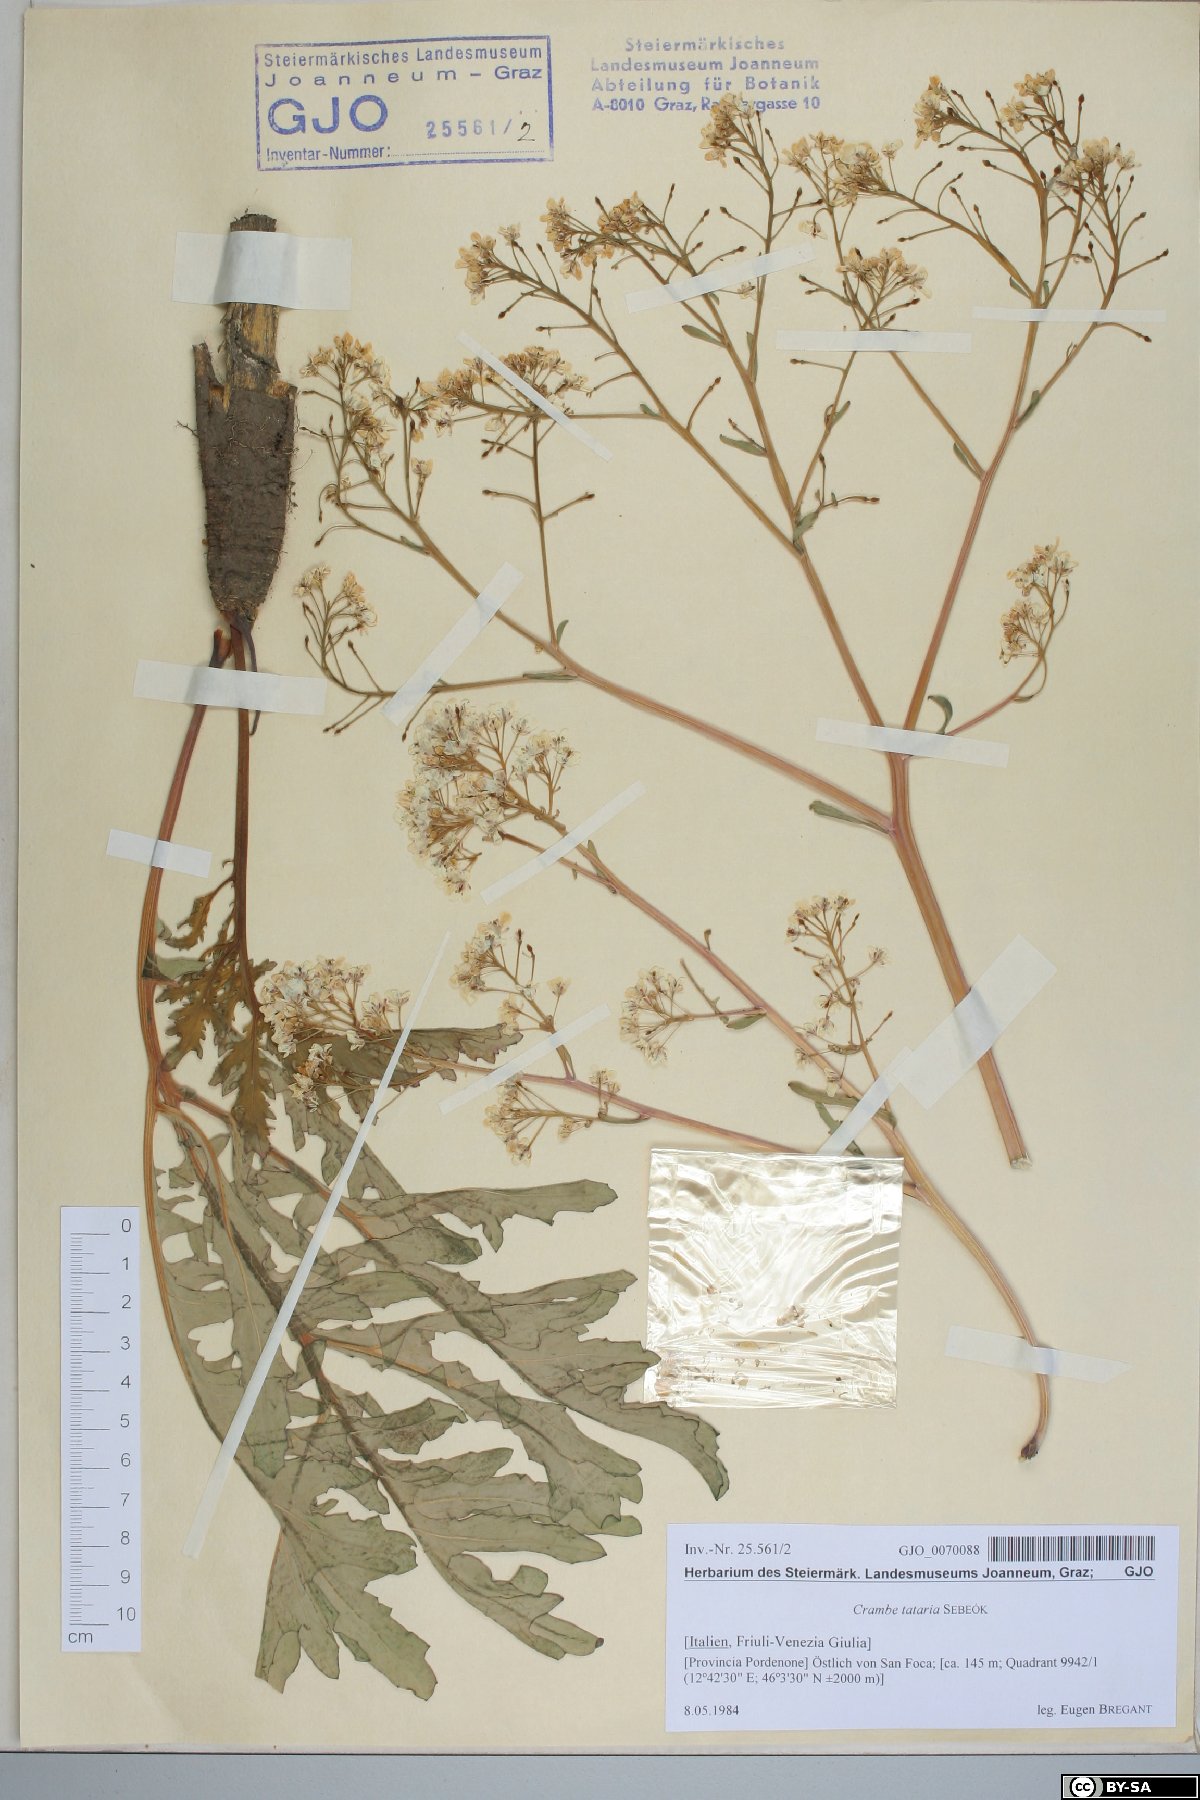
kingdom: Plantae
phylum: Tracheophyta
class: Magnoliopsida
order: Brassicales
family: Brassicaceae
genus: Crambe
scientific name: Crambe tataria
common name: Tartarian breadplant
